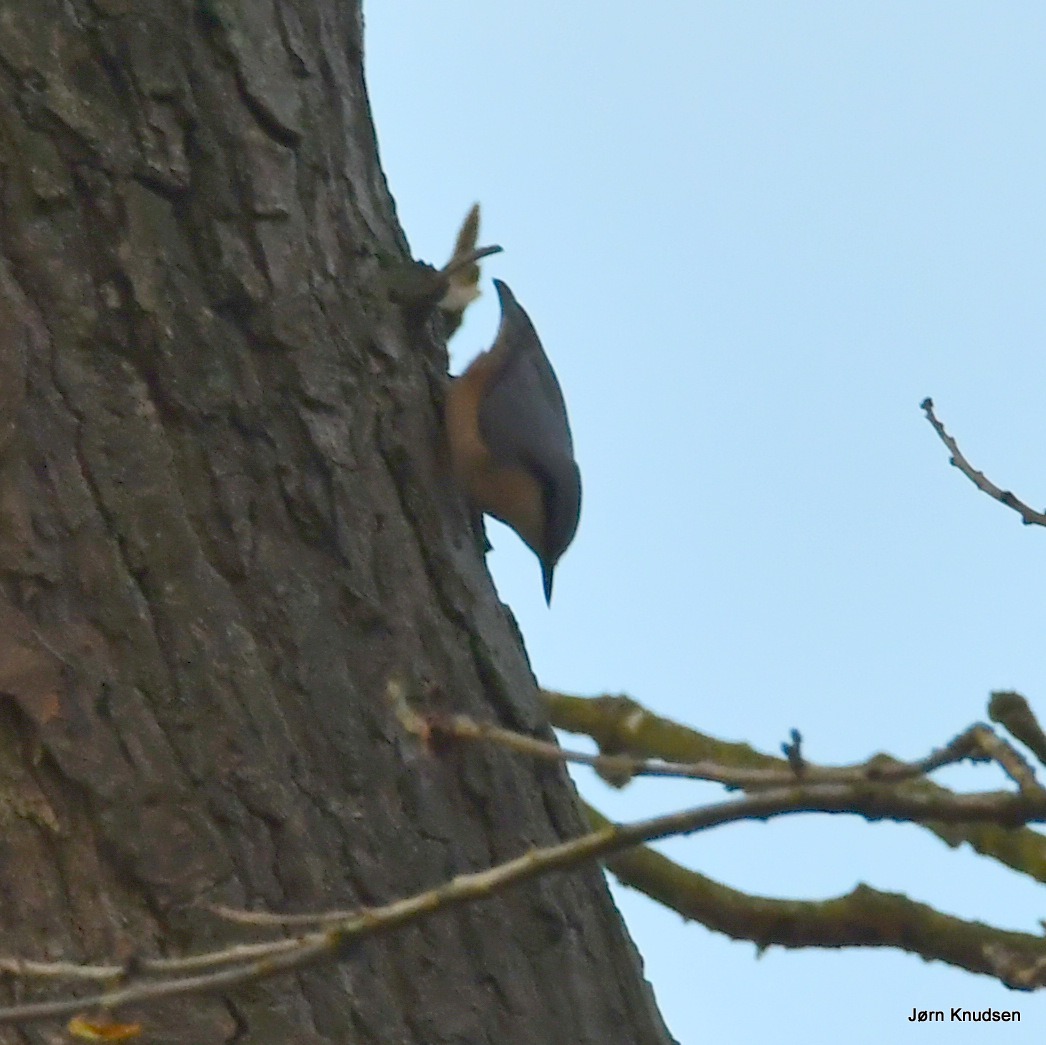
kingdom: Animalia
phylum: Chordata
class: Aves
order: Passeriformes
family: Sittidae
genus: Sitta
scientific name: Sitta europaea
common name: Spætmejse
